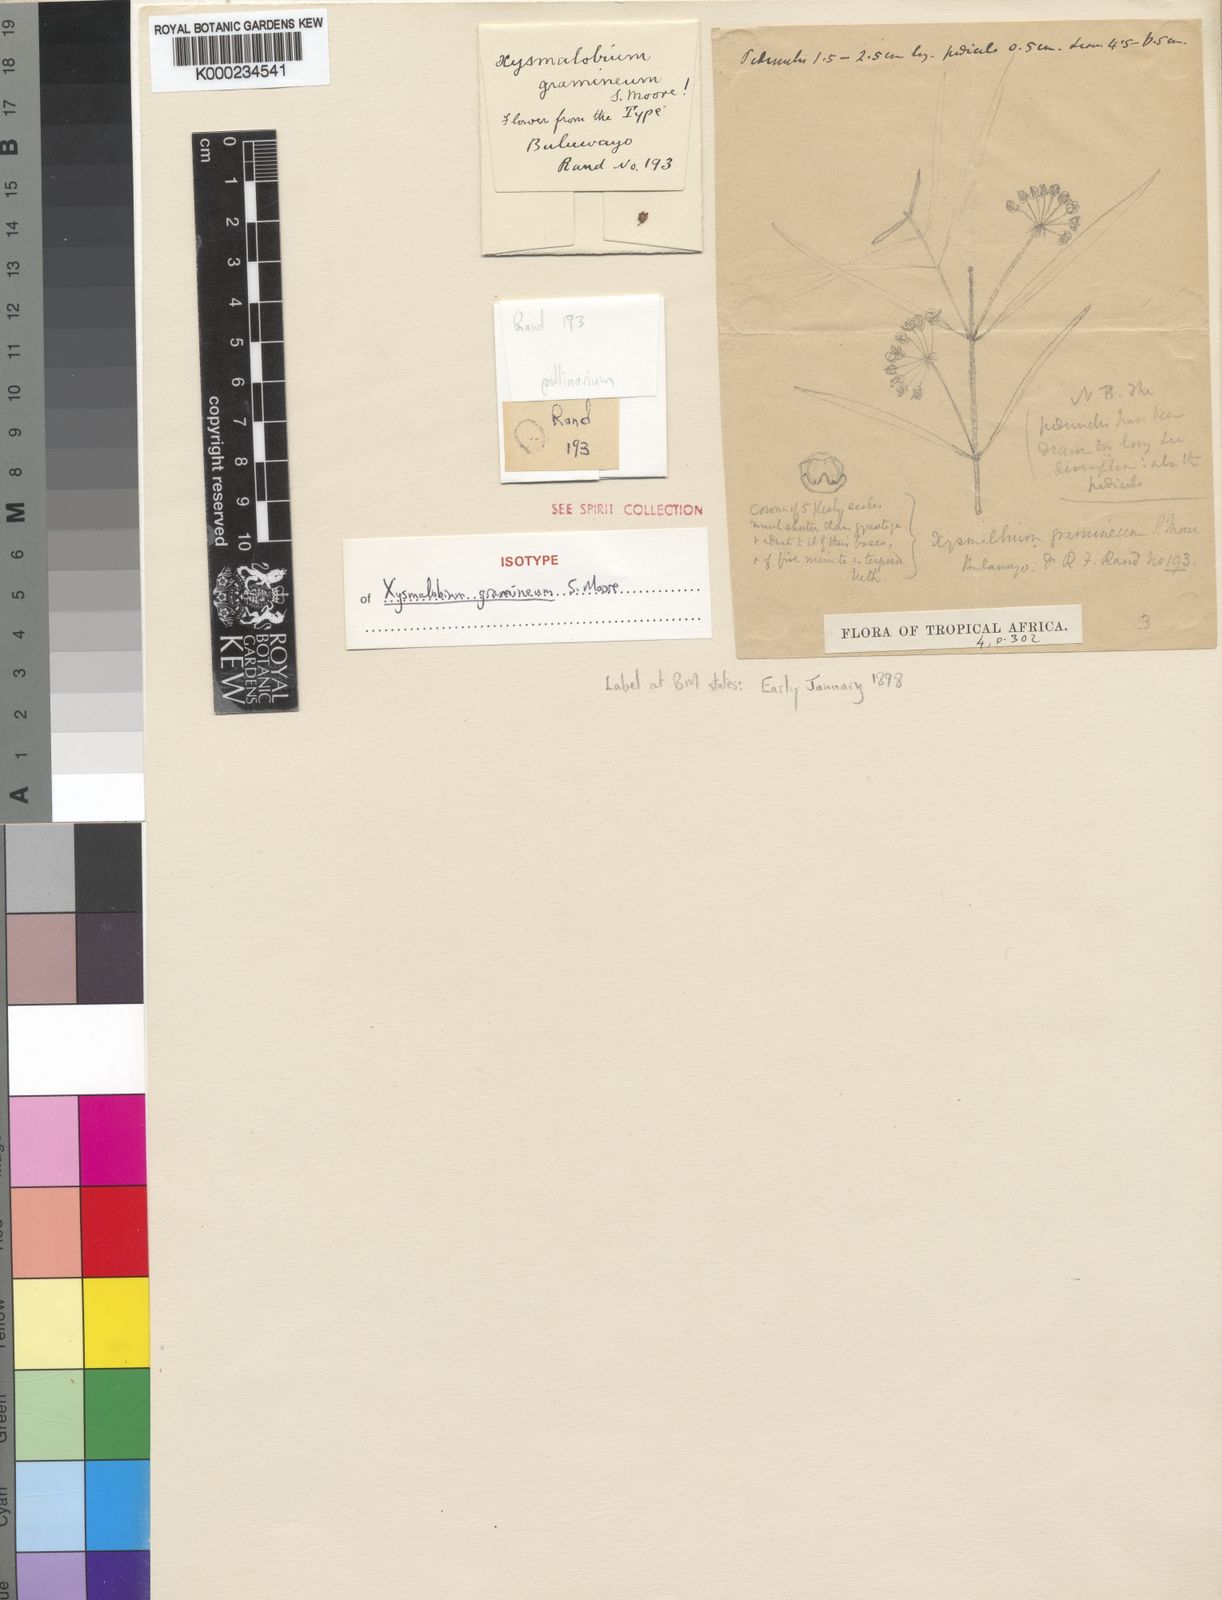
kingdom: Plantae
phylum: Tracheophyta
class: Magnoliopsida
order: Gentianales
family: Apocynaceae
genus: Xysmalobium
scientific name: Xysmalobium gramineum
